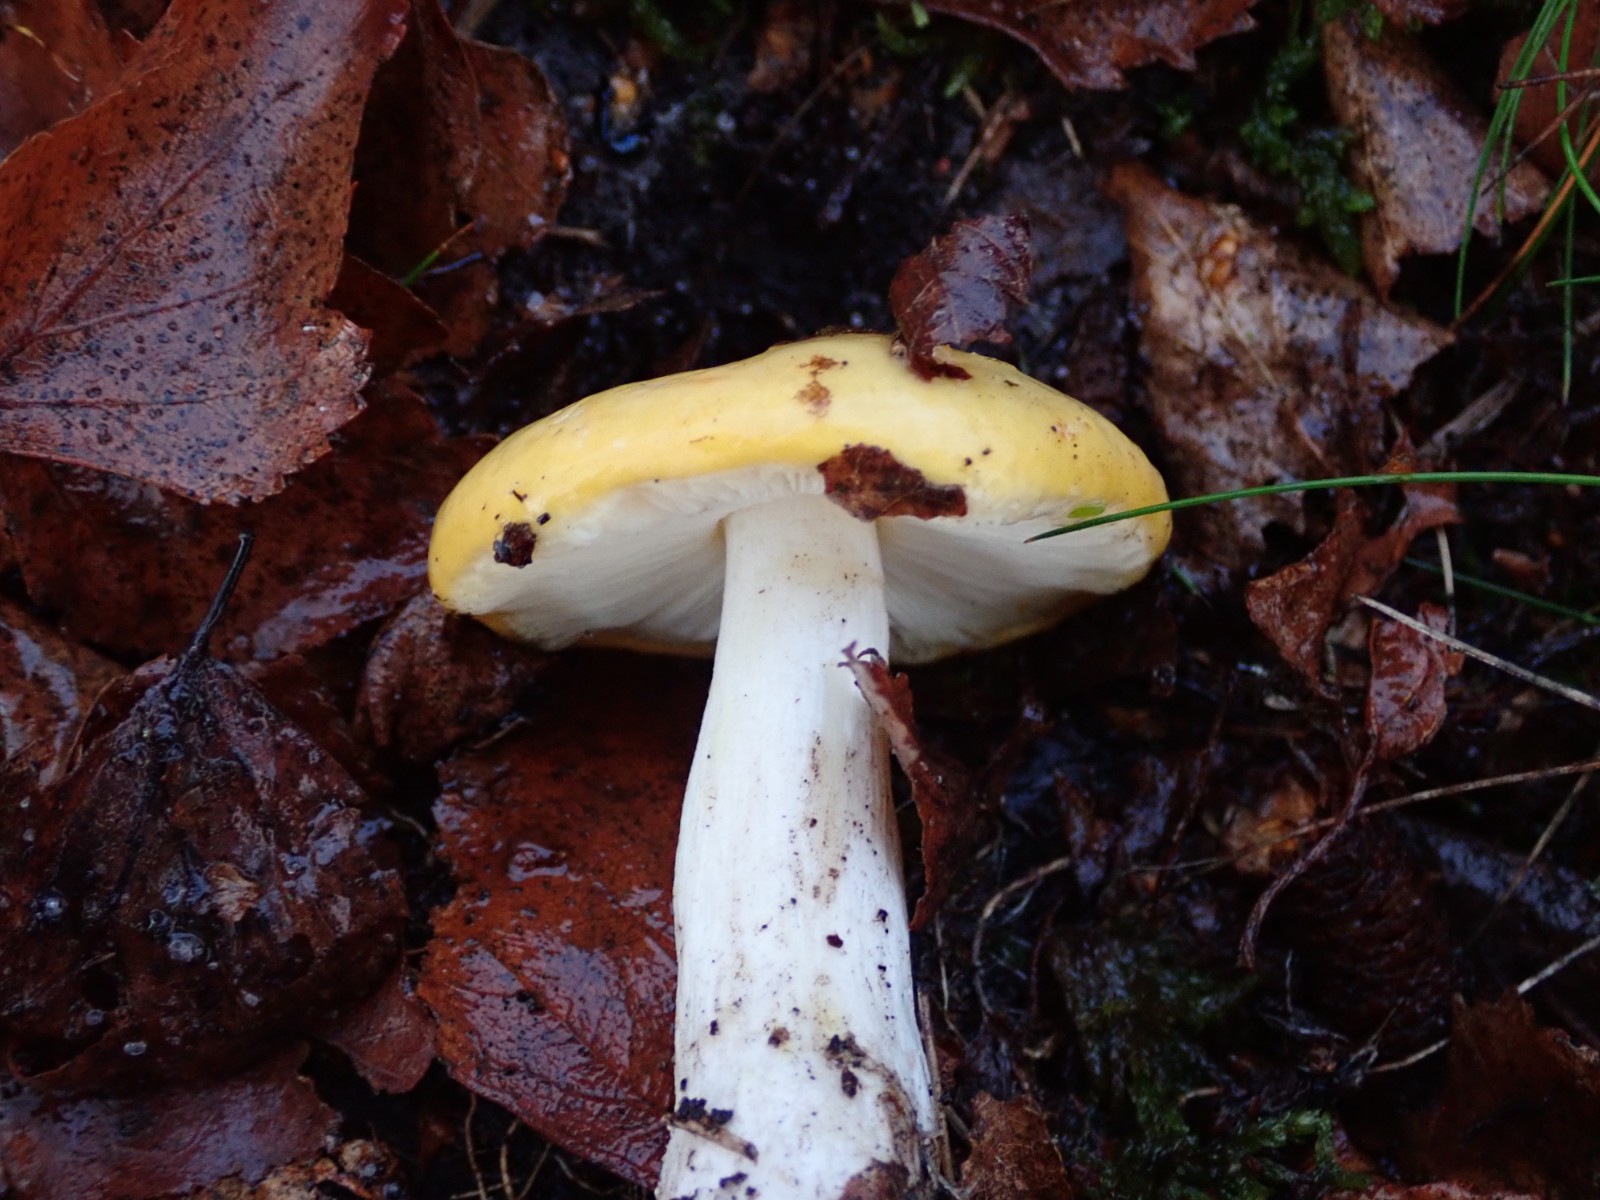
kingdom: Fungi
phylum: Basidiomycota
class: Agaricomycetes
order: Russulales
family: Russulaceae
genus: Russula
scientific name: Russula
